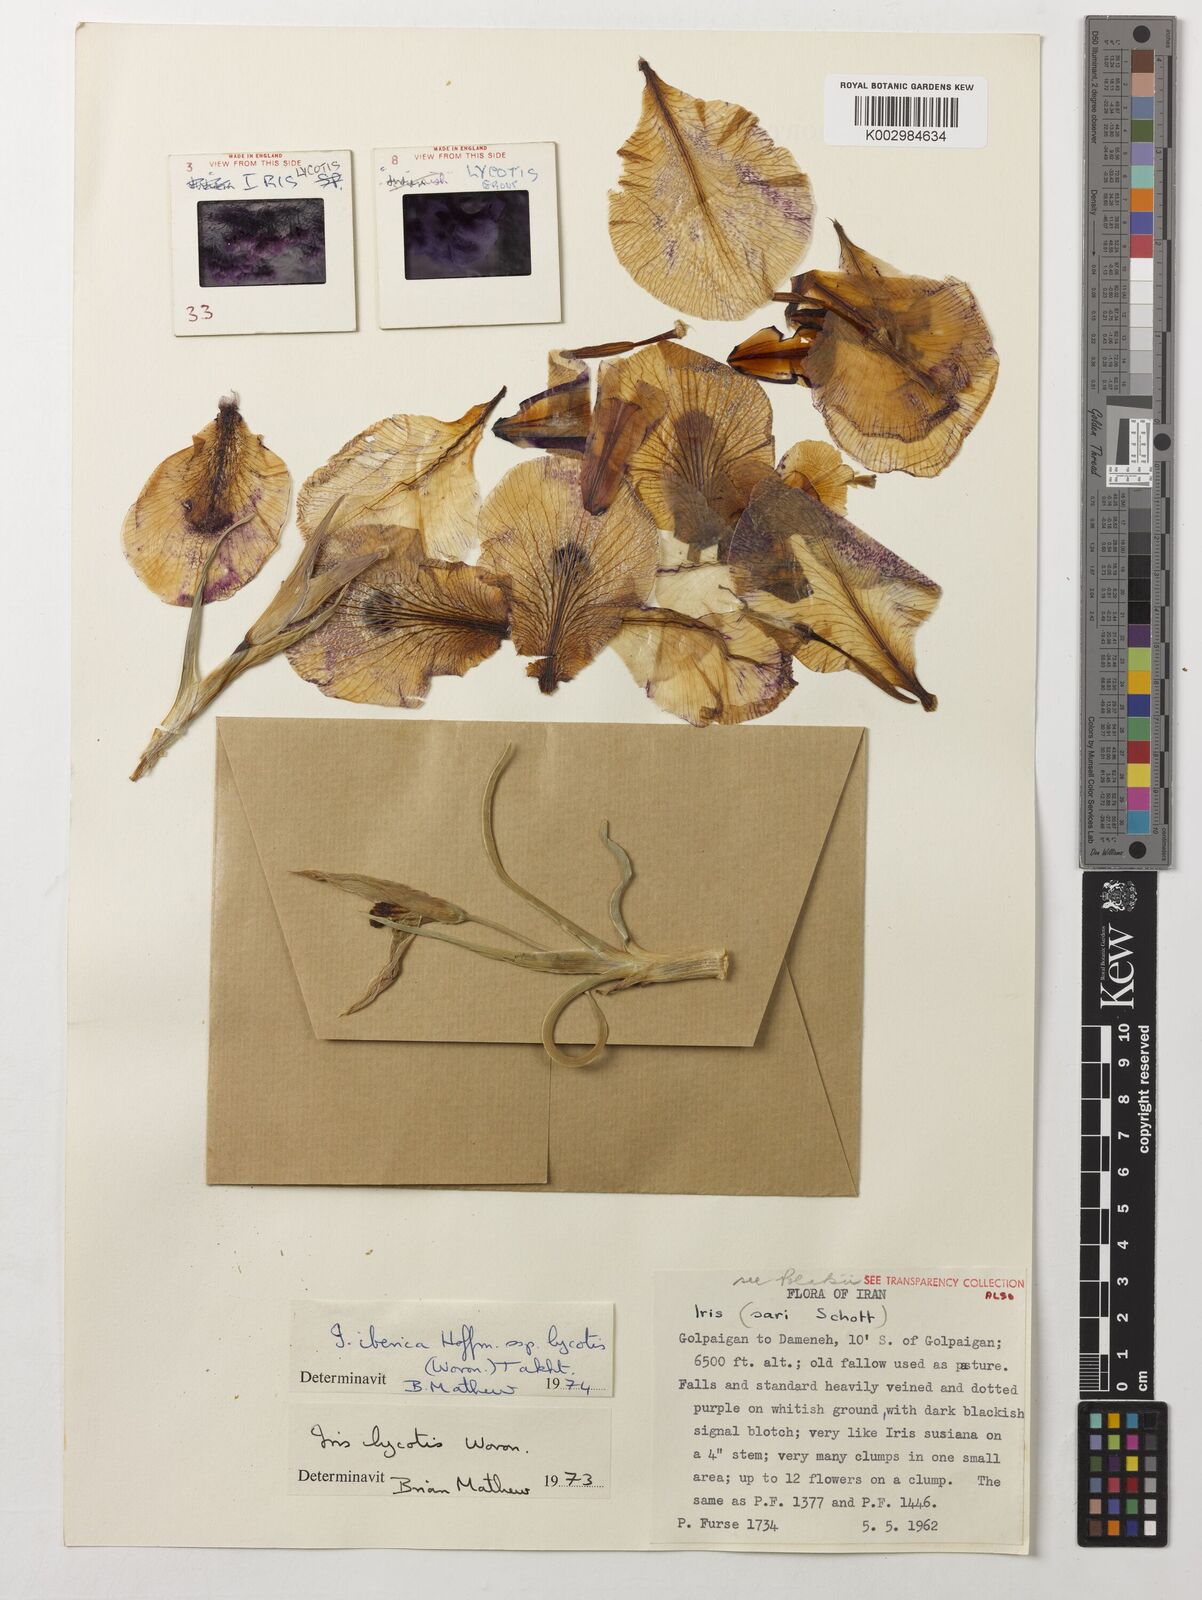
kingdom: Plantae
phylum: Tracheophyta
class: Liliopsida
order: Asparagales
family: Iridaceae
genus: Iris
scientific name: Iris lycotis
